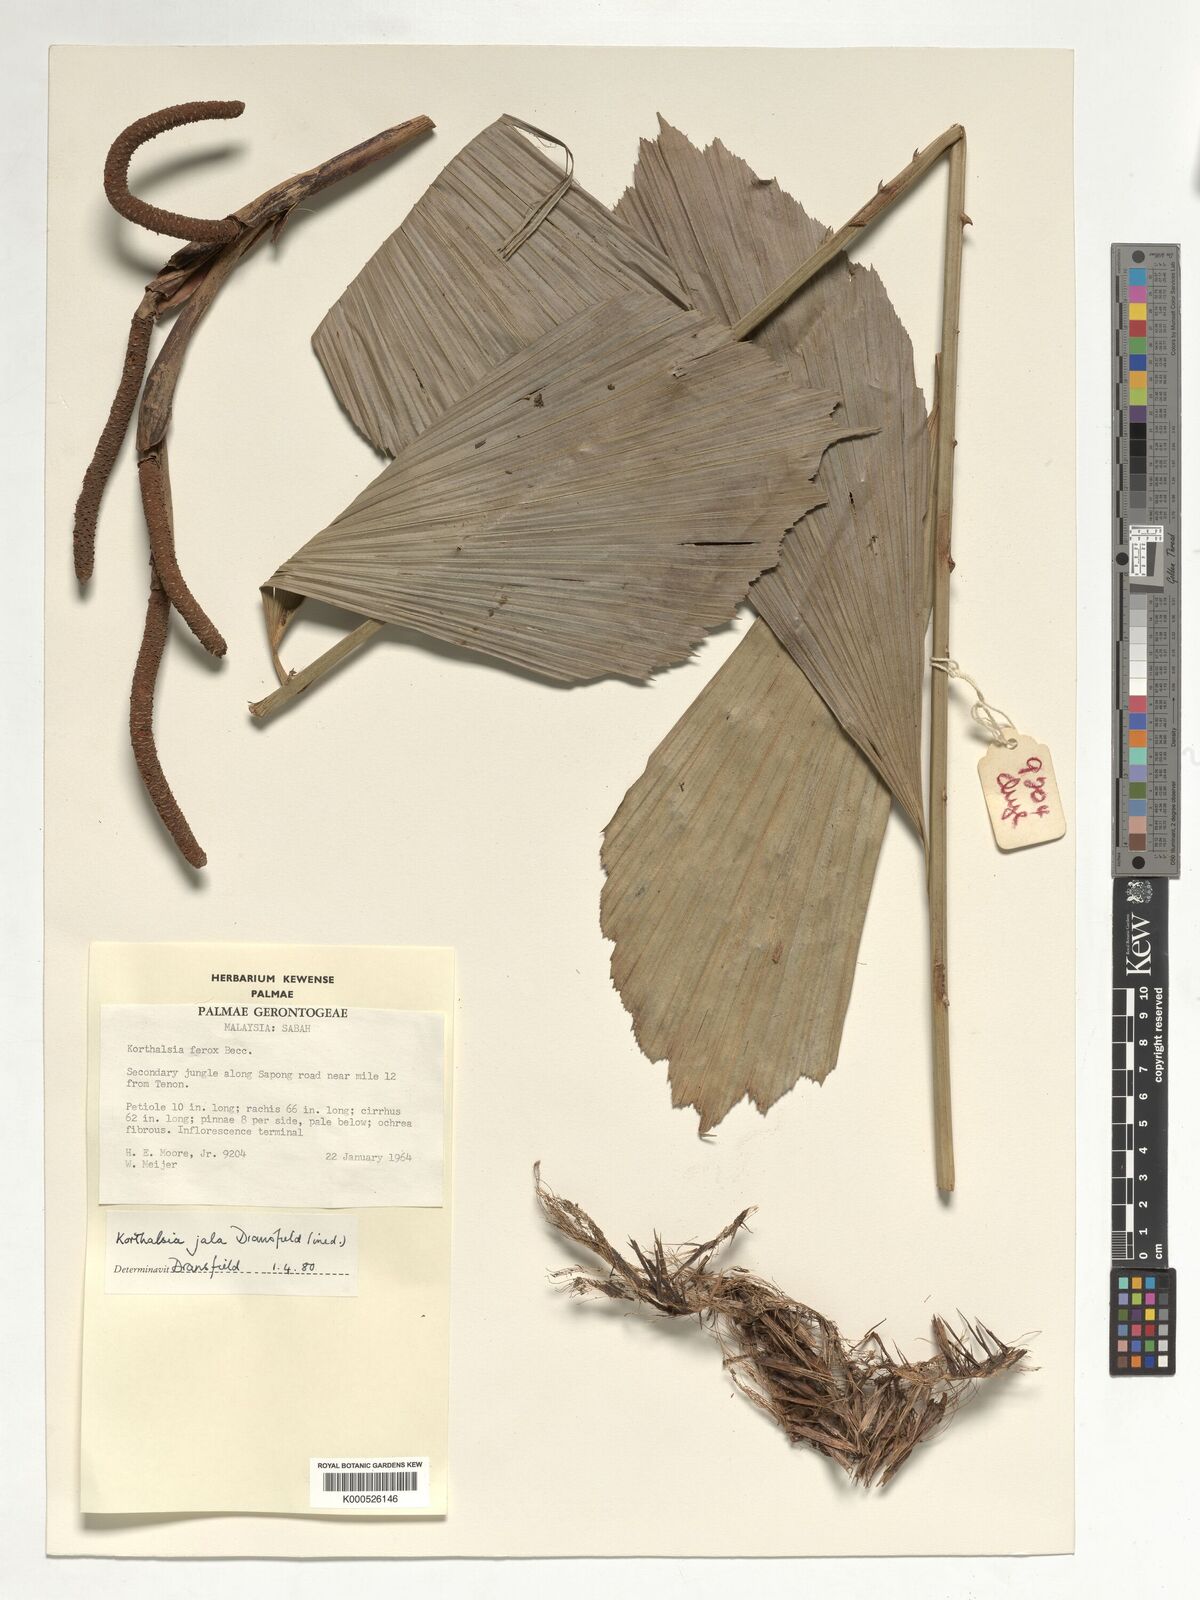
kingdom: Plantae
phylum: Tracheophyta
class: Liliopsida
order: Arecales
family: Arecaceae
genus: Korthalsia
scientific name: Korthalsia jala
